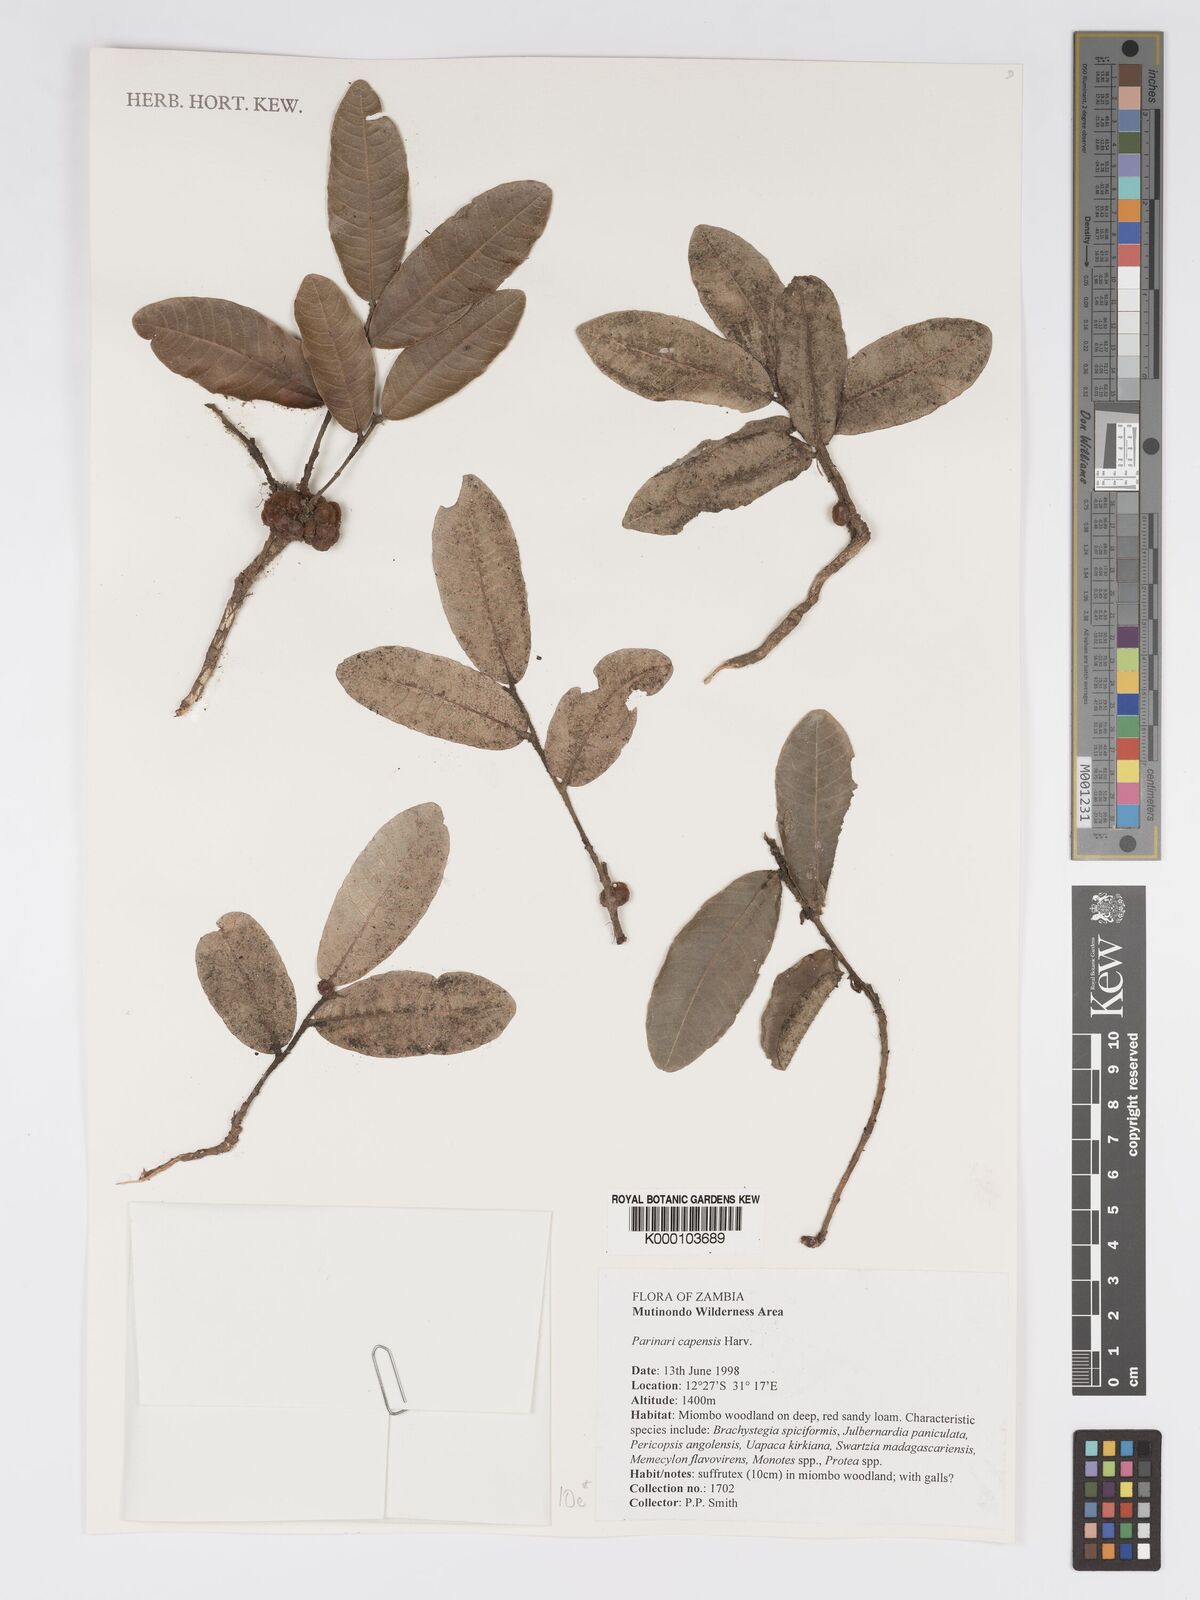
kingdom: Plantae
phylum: Tracheophyta
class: Magnoliopsida
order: Malpighiales
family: Chrysobalanaceae
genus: Parinari
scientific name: Parinari capensis
